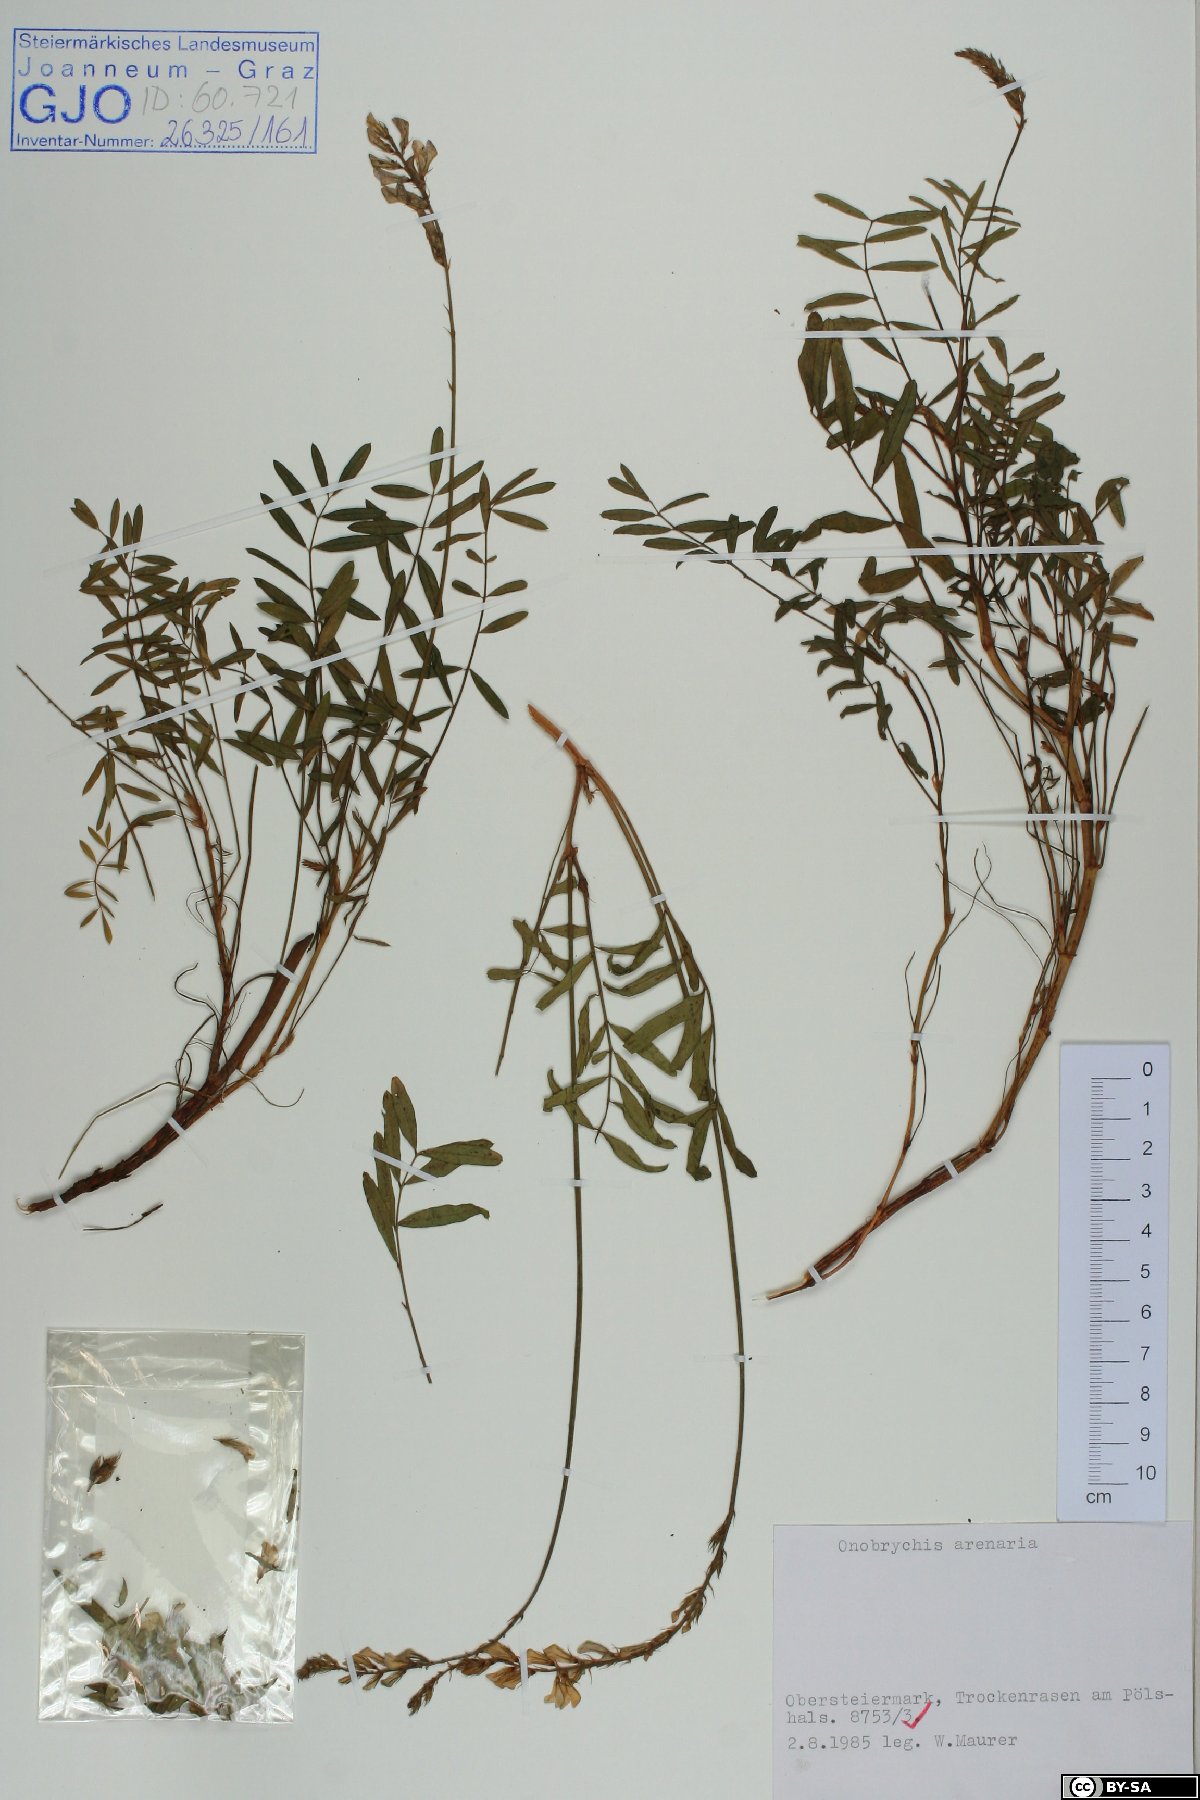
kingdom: Plantae
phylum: Tracheophyta
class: Magnoliopsida
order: Fabales
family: Fabaceae
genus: Onobrychis
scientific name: Onobrychis arenaria
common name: Sand esparcet
